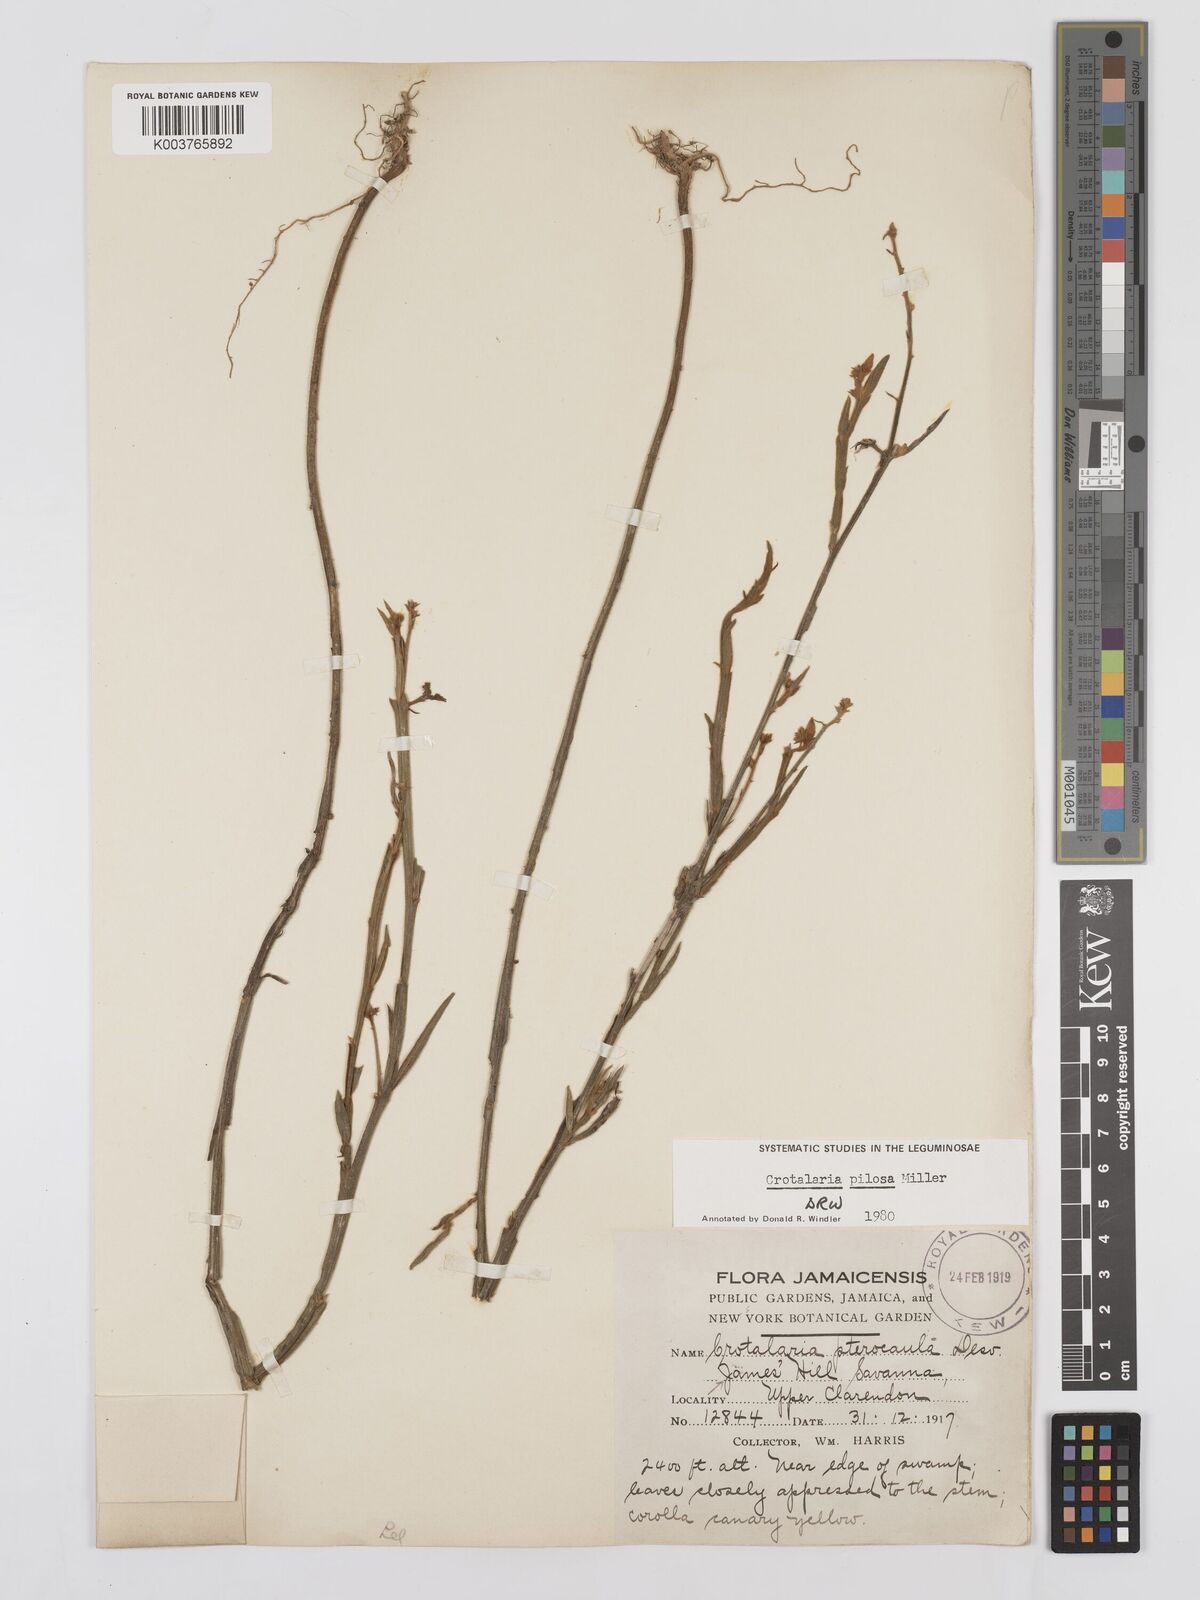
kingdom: Plantae
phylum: Tracheophyta
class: Magnoliopsida
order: Fabales
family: Fabaceae
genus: Crotalaria
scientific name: Crotalaria pilosa
